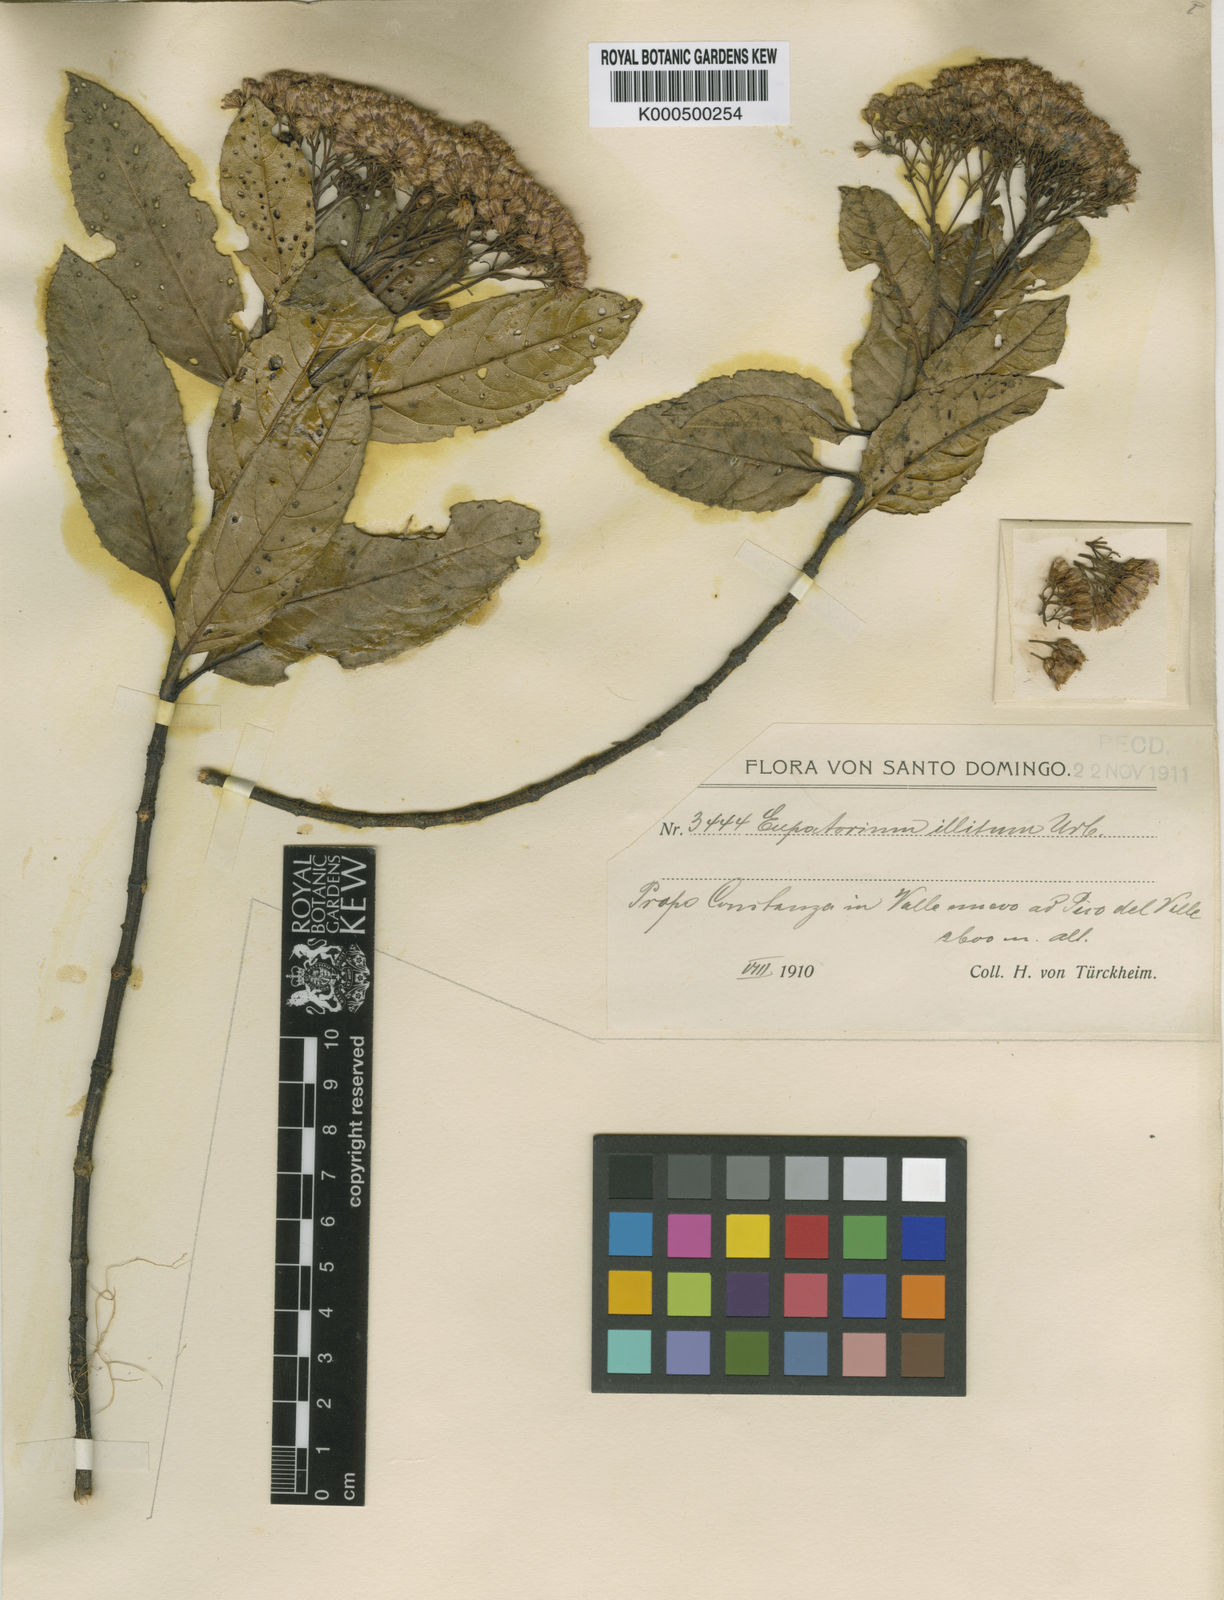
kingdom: Plantae
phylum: Tracheophyta
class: Magnoliopsida
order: Asterales
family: Asteraceae
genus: Ageratina
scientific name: Ageratina illita
